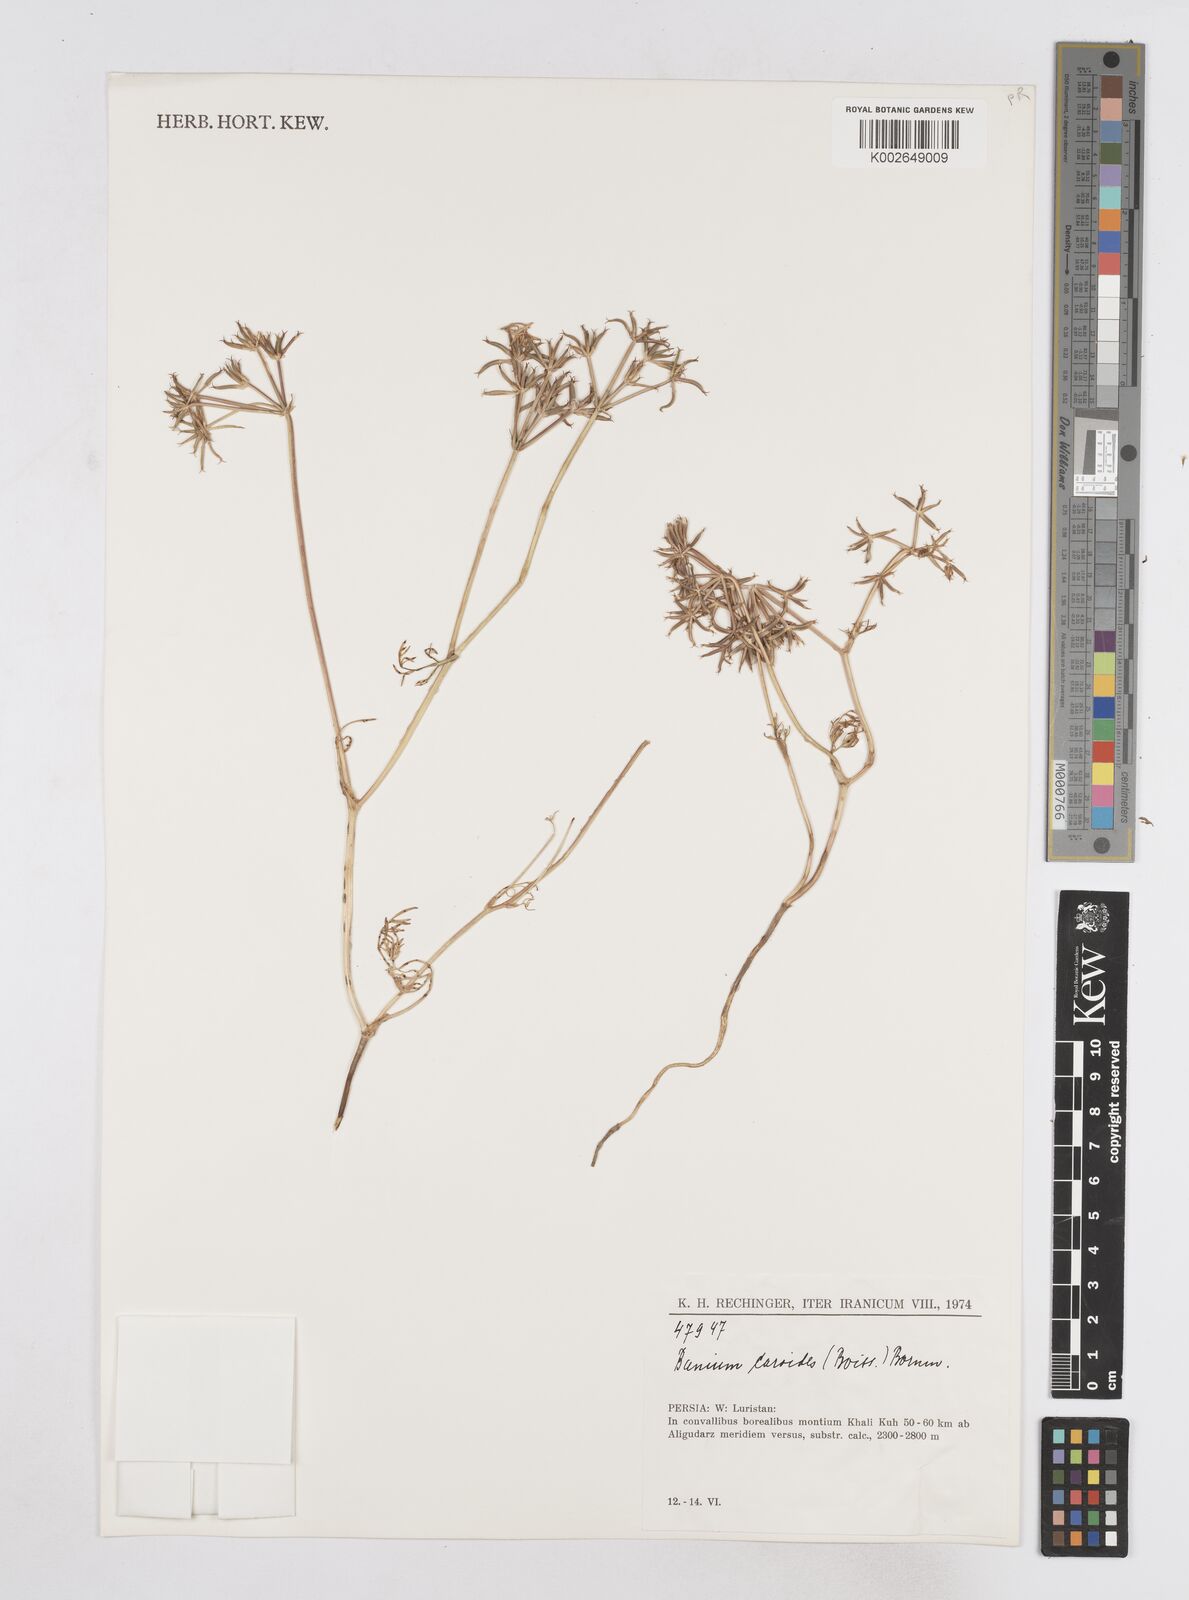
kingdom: Plantae
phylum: Tracheophyta
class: Magnoliopsida
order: Apiales
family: Apiaceae
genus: Elwendia
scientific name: Elwendia caroides
